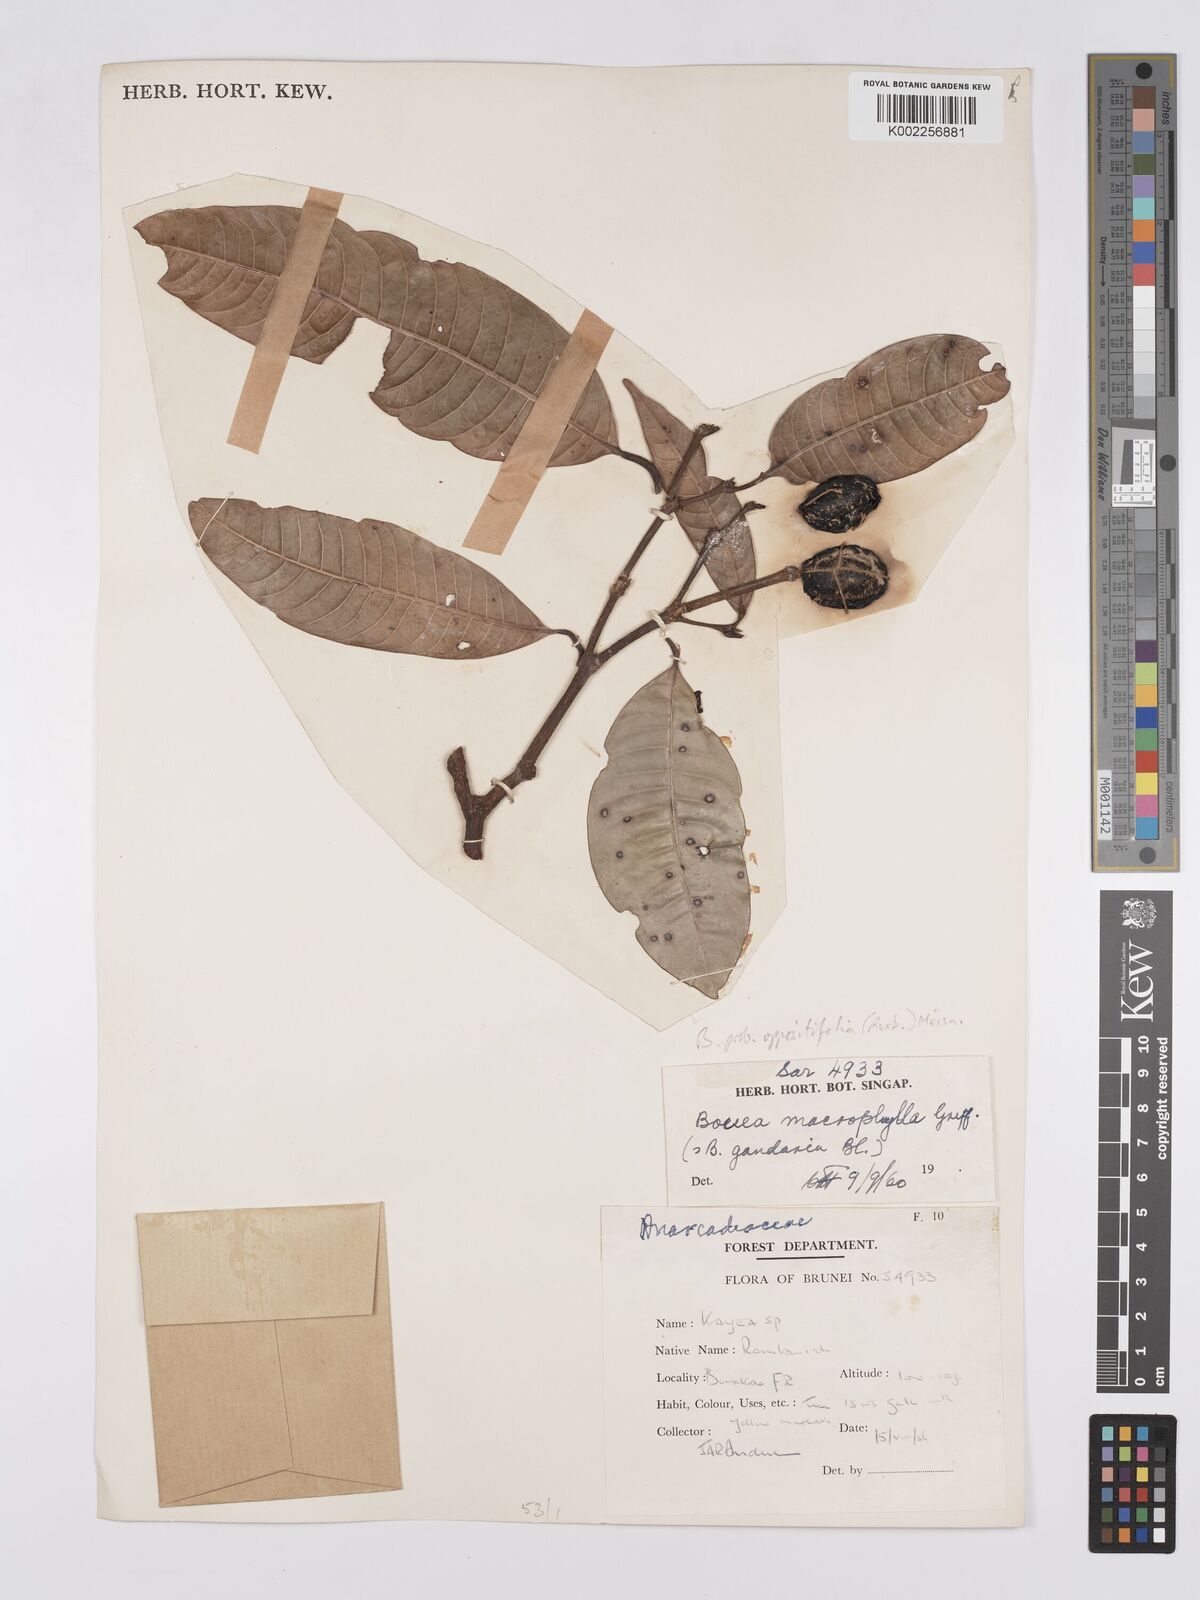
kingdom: Plantae
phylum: Tracheophyta
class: Magnoliopsida
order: Sapindales
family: Anacardiaceae
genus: Bouea
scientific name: Bouea oppositifolia
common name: Narrow-leaved kundang
